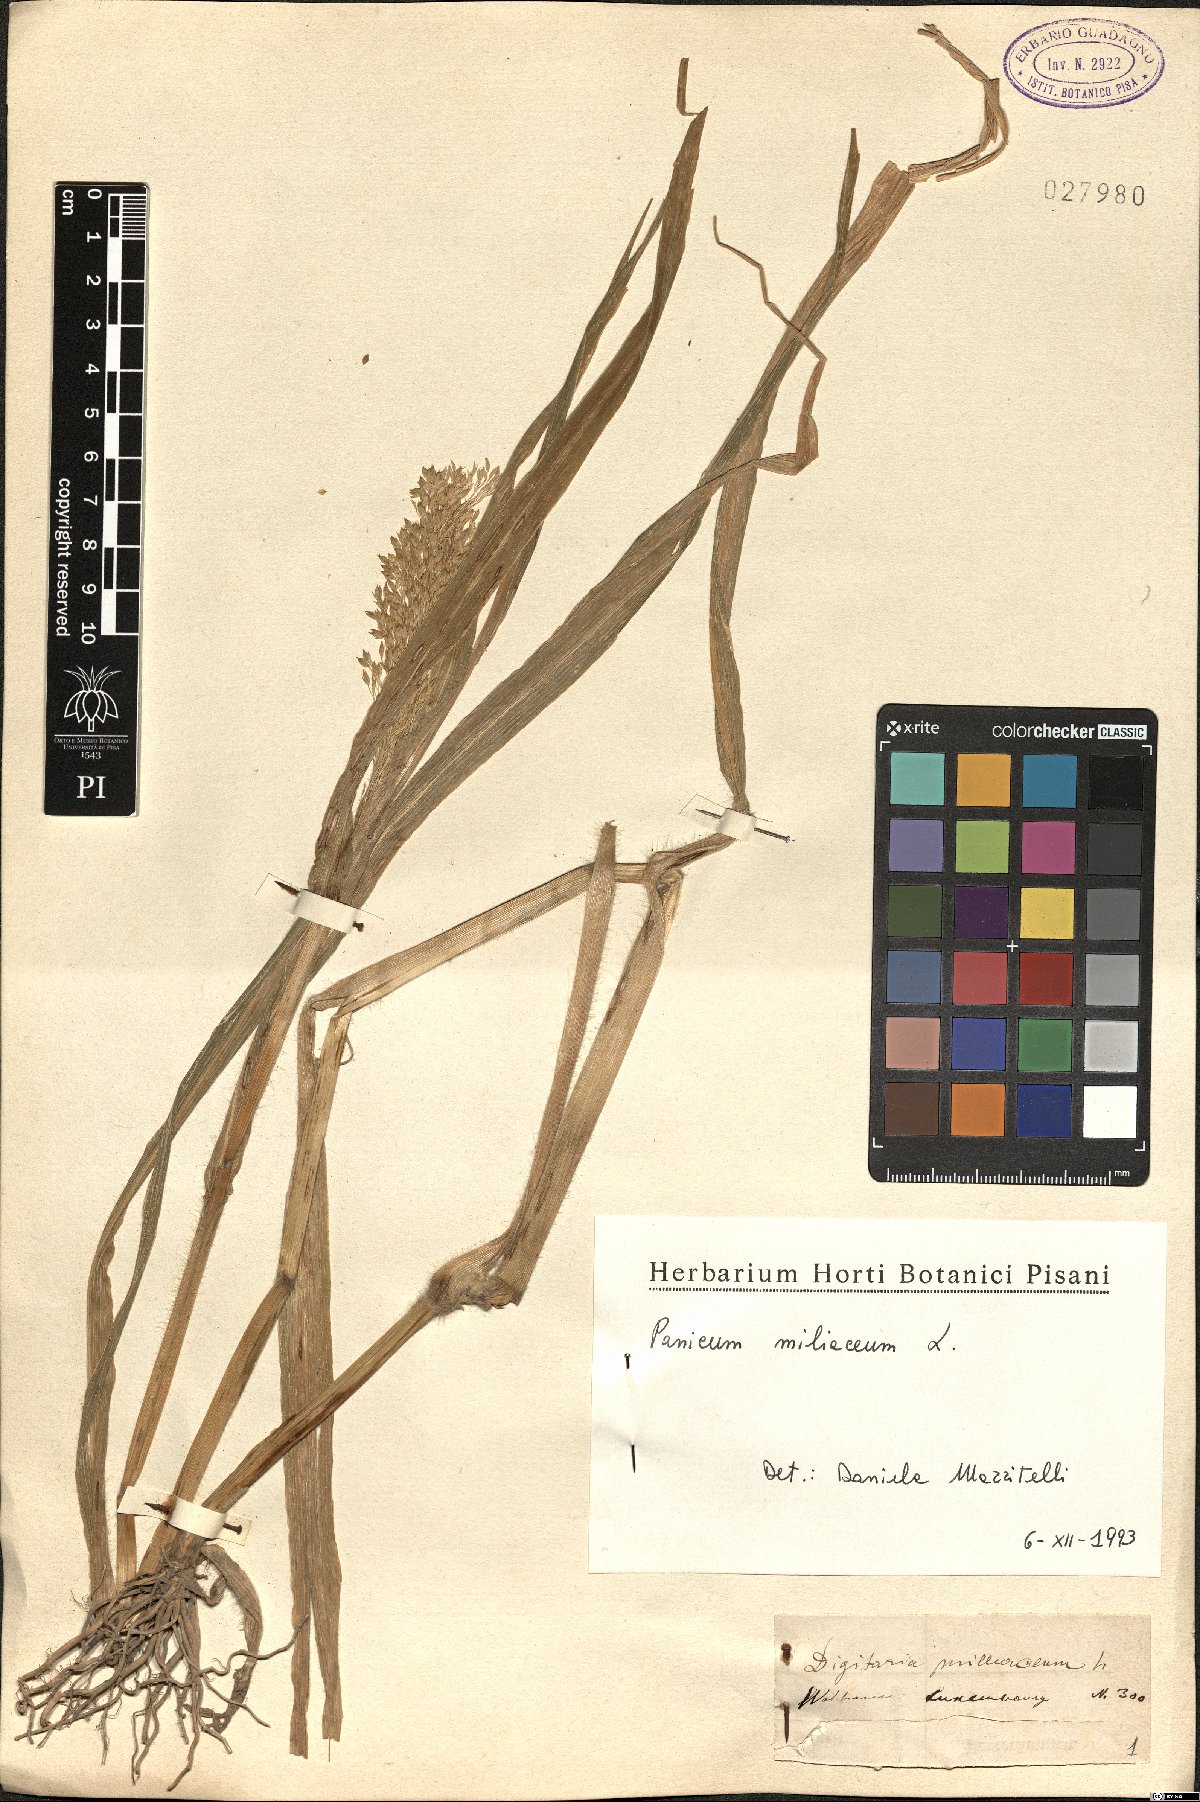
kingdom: Plantae
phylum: Tracheophyta
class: Liliopsida
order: Poales
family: Poaceae
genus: Panicum
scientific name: Panicum miliaceum
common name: Common millet
